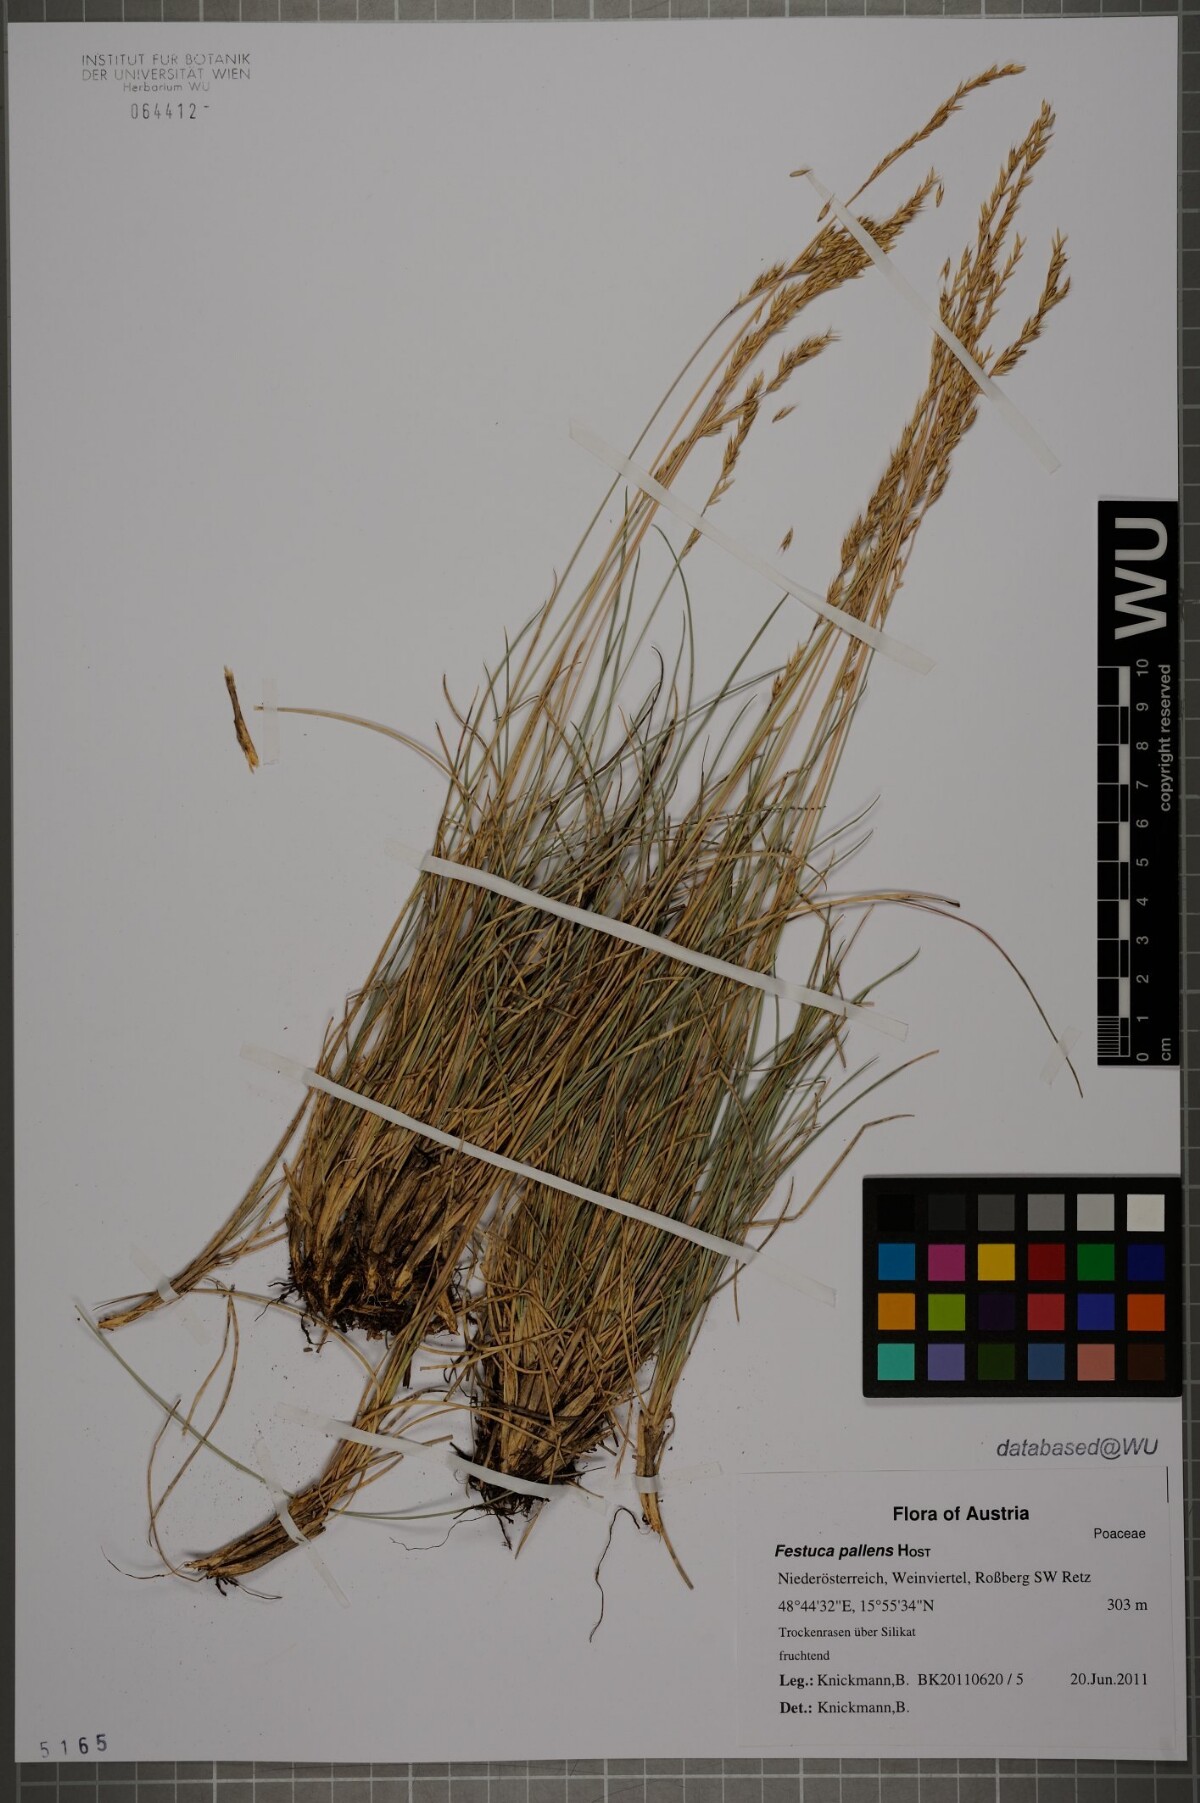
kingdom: Plantae
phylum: Tracheophyta
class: Liliopsida
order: Poales
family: Poaceae
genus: Festuca
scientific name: Festuca pallens
